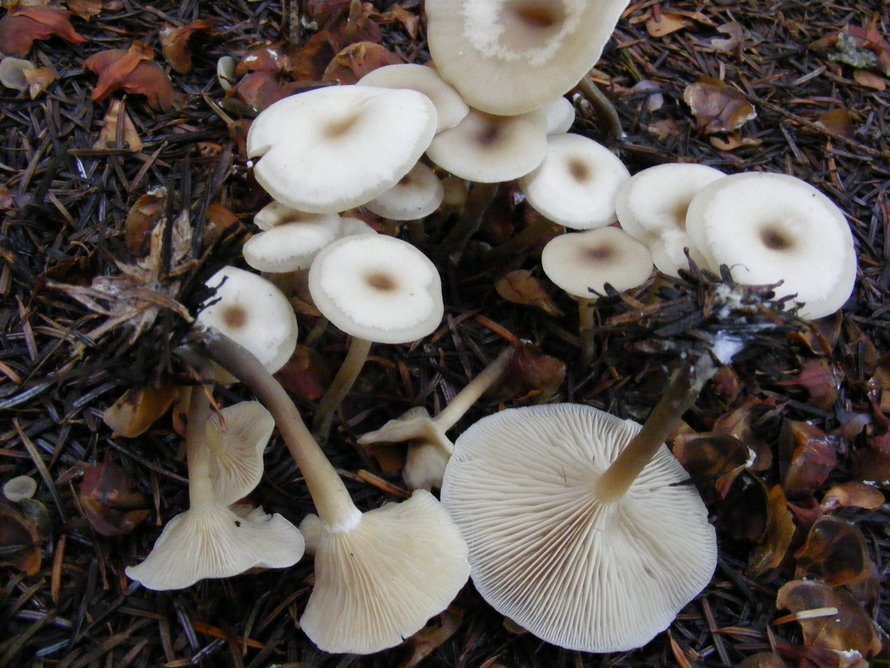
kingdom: Fungi
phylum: Basidiomycota
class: Agaricomycetes
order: Agaricales
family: Tricholomataceae
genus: Clitocybe
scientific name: Clitocybe metachroa
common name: grå tragthat
